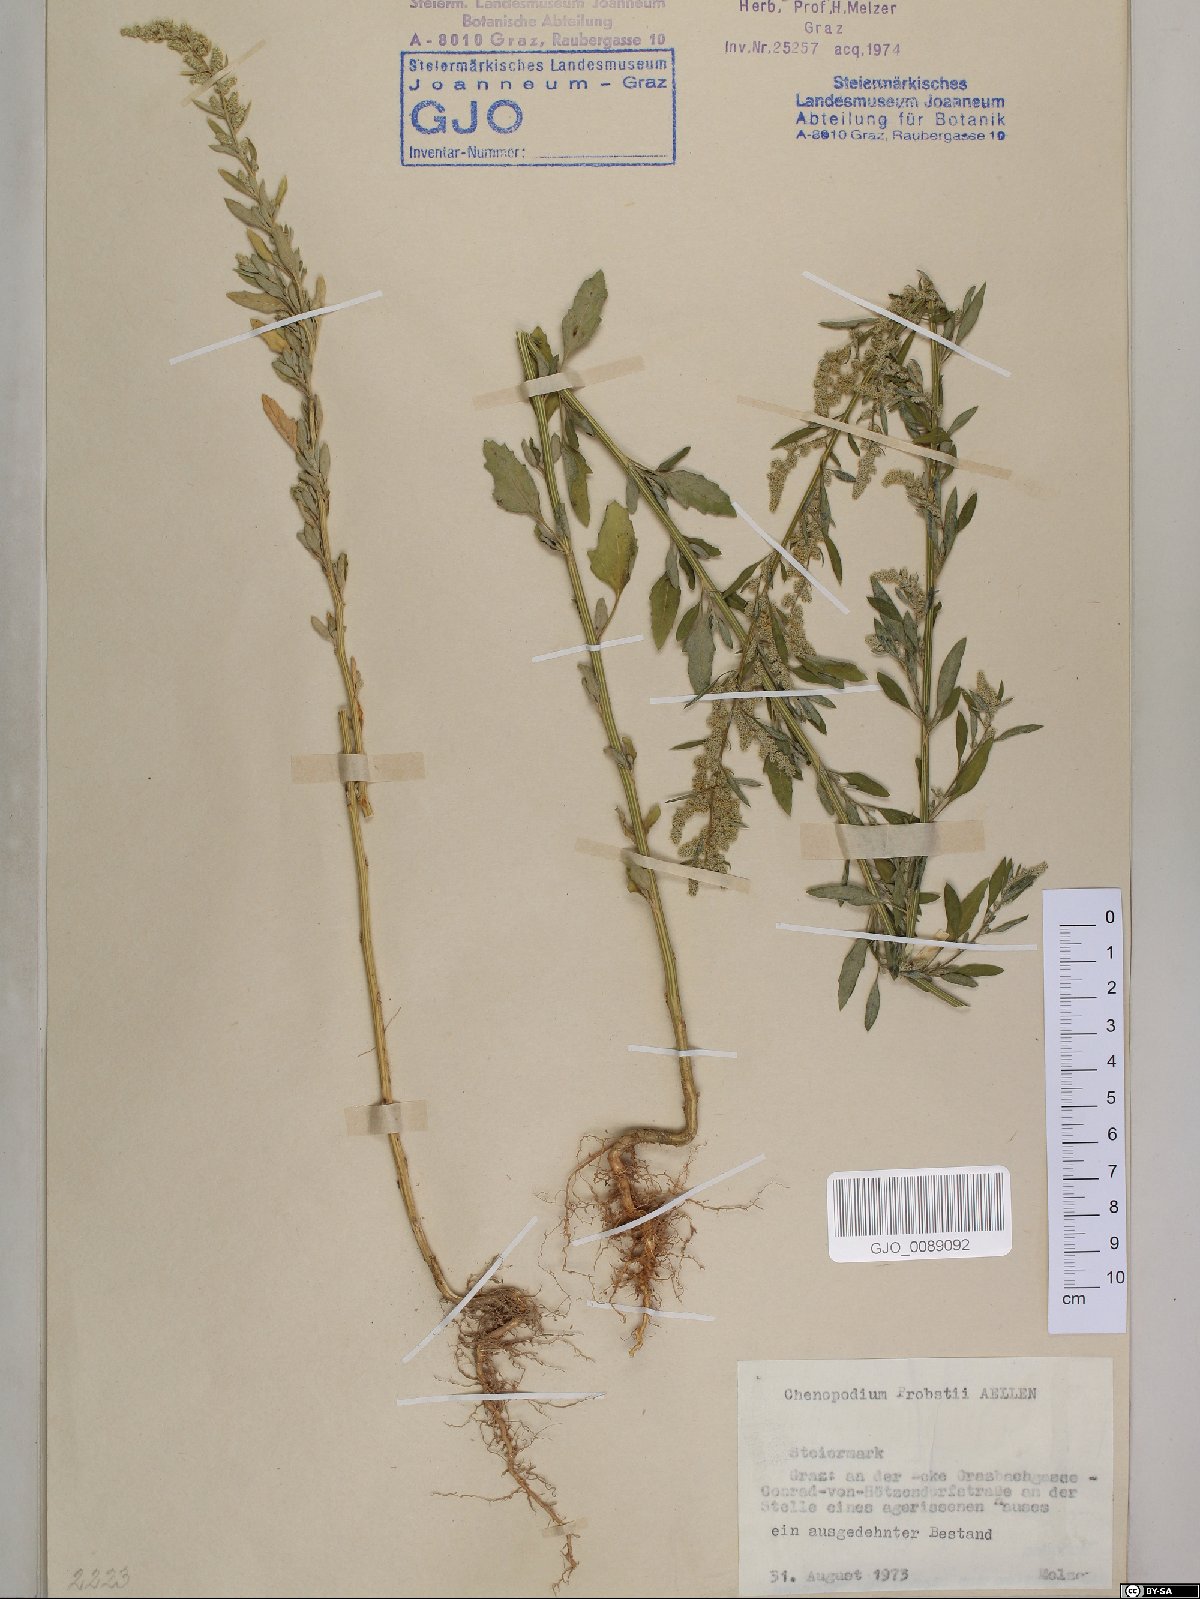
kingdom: Plantae
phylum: Tracheophyta
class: Magnoliopsida
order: Caryophyllales
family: Amaranthaceae
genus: Chenopodium
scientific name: Chenopodium probstii
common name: Probst's goosefoot
